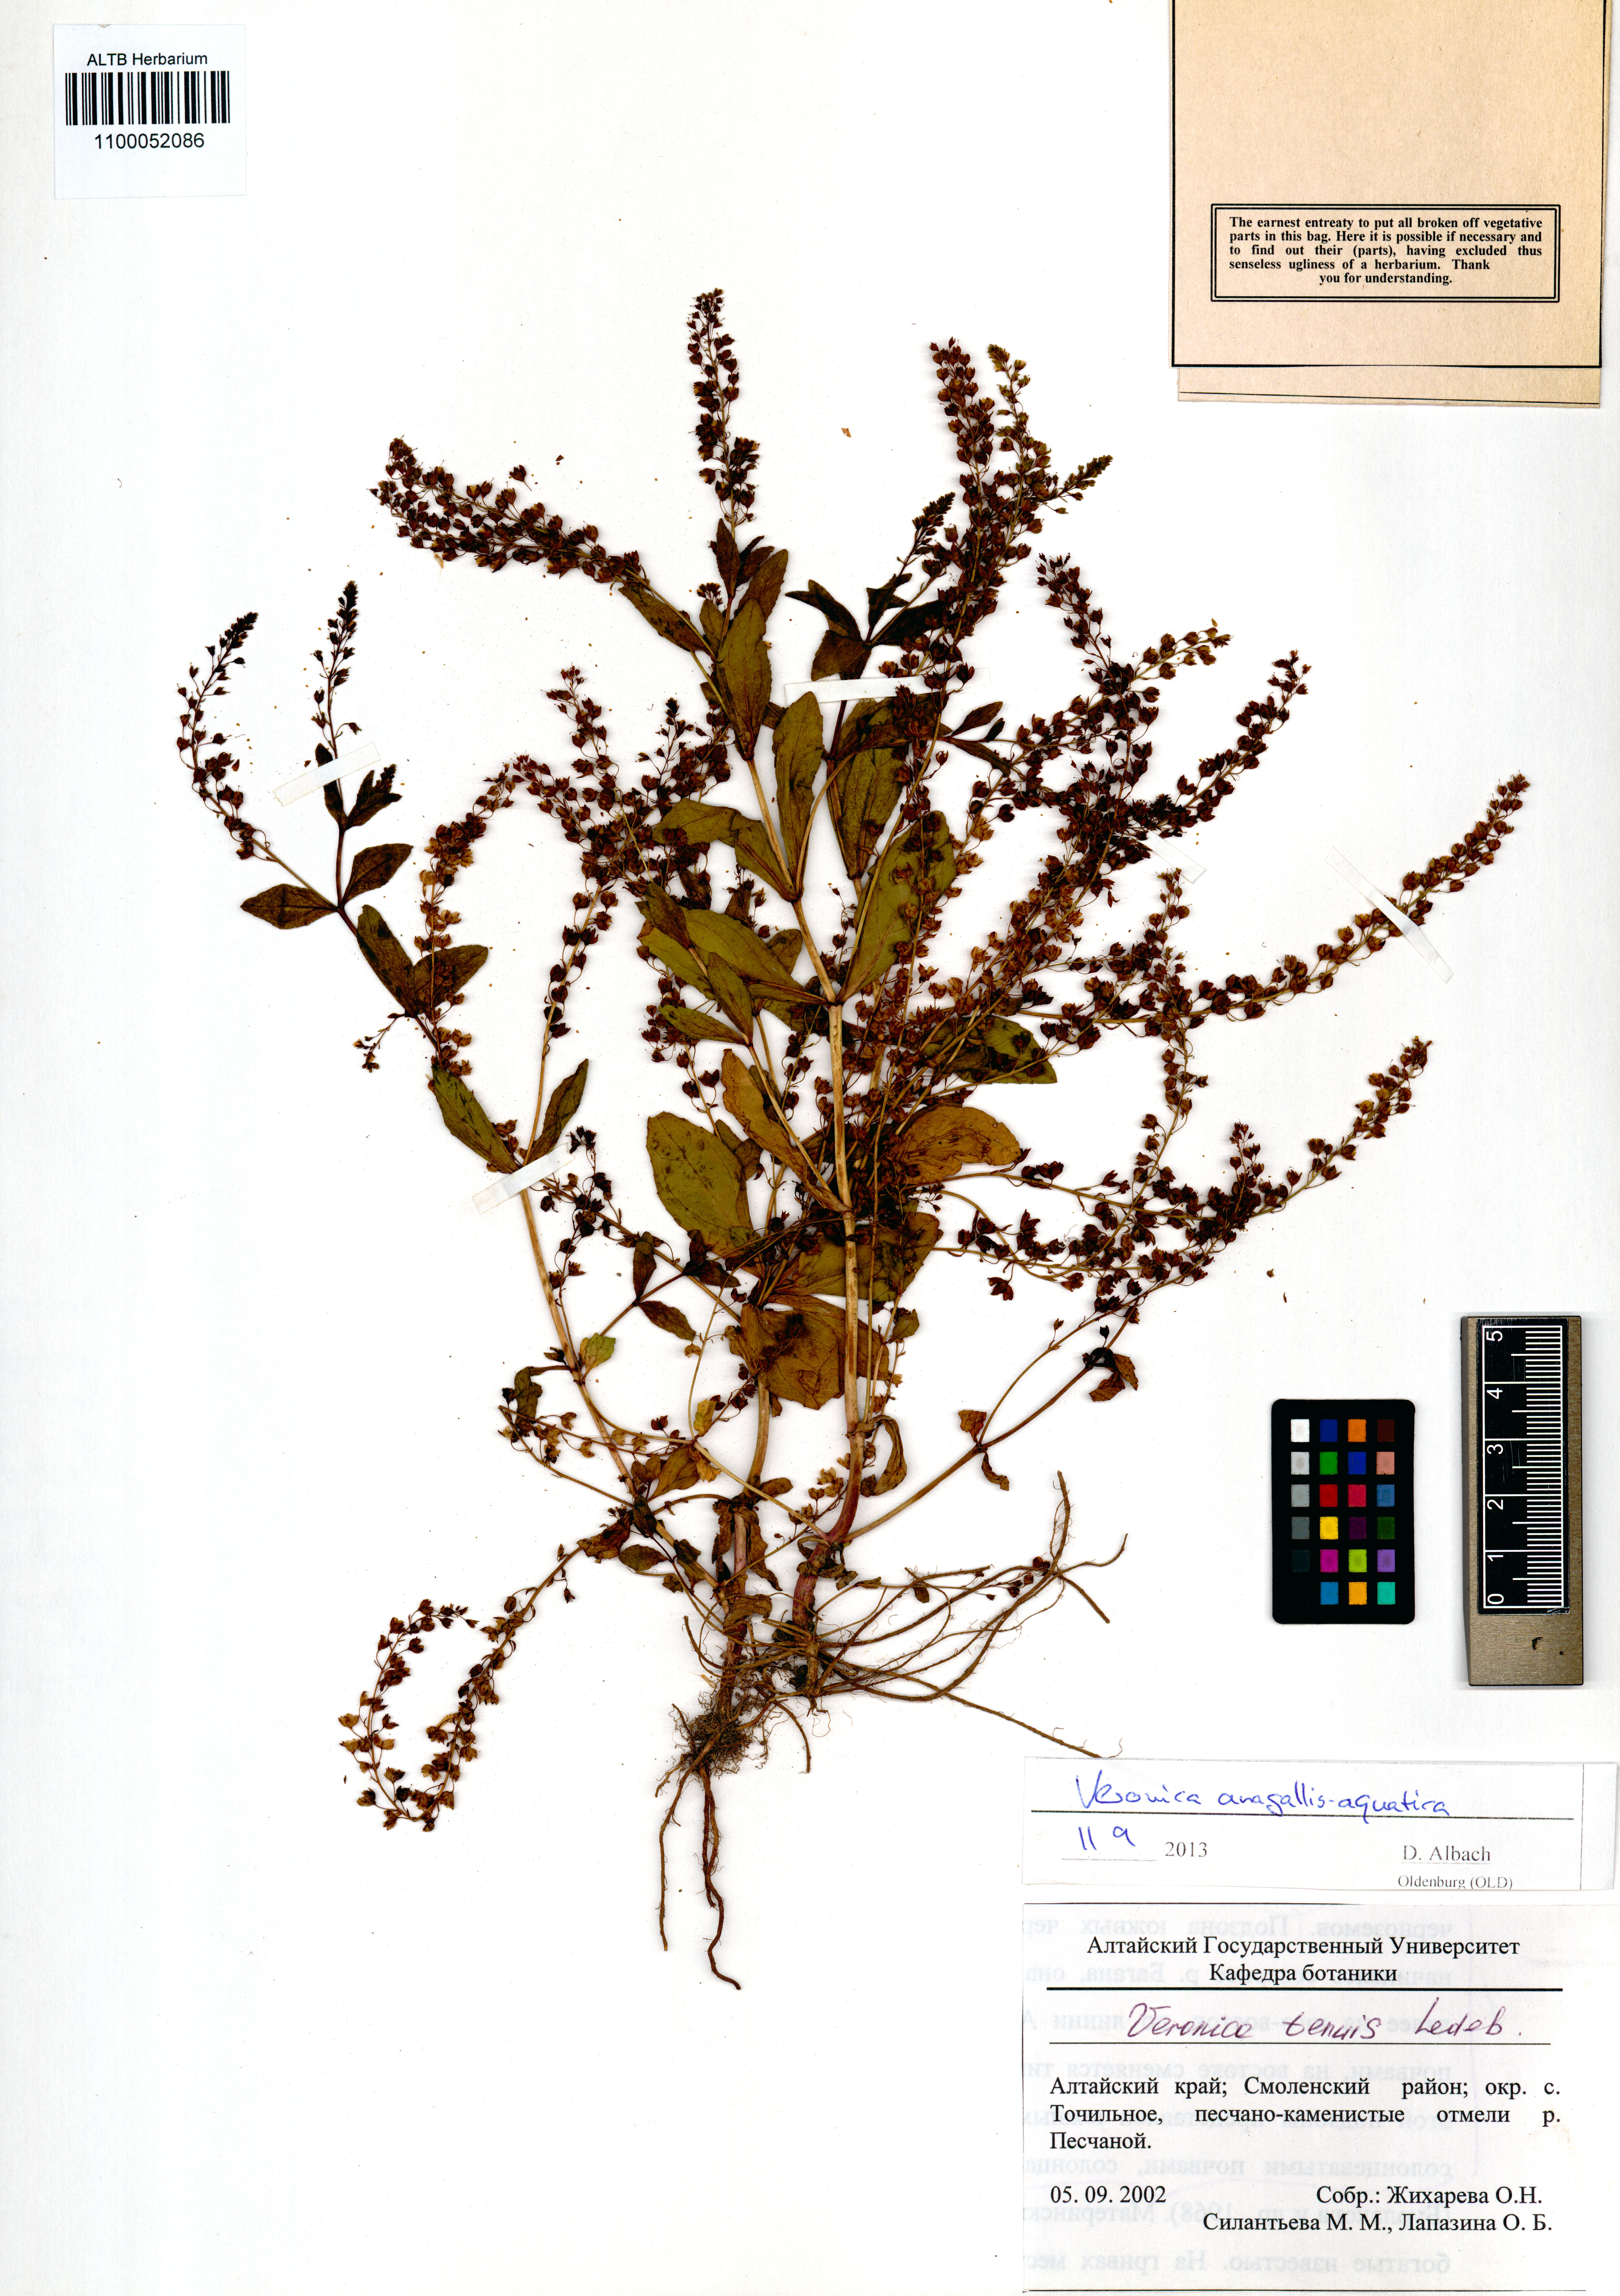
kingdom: Plantae
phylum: Tracheophyta
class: Magnoliopsida
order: Lamiales
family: Plantaginaceae
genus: Veronica
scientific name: Veronica anagallis-aquatica
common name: Water speedwell
